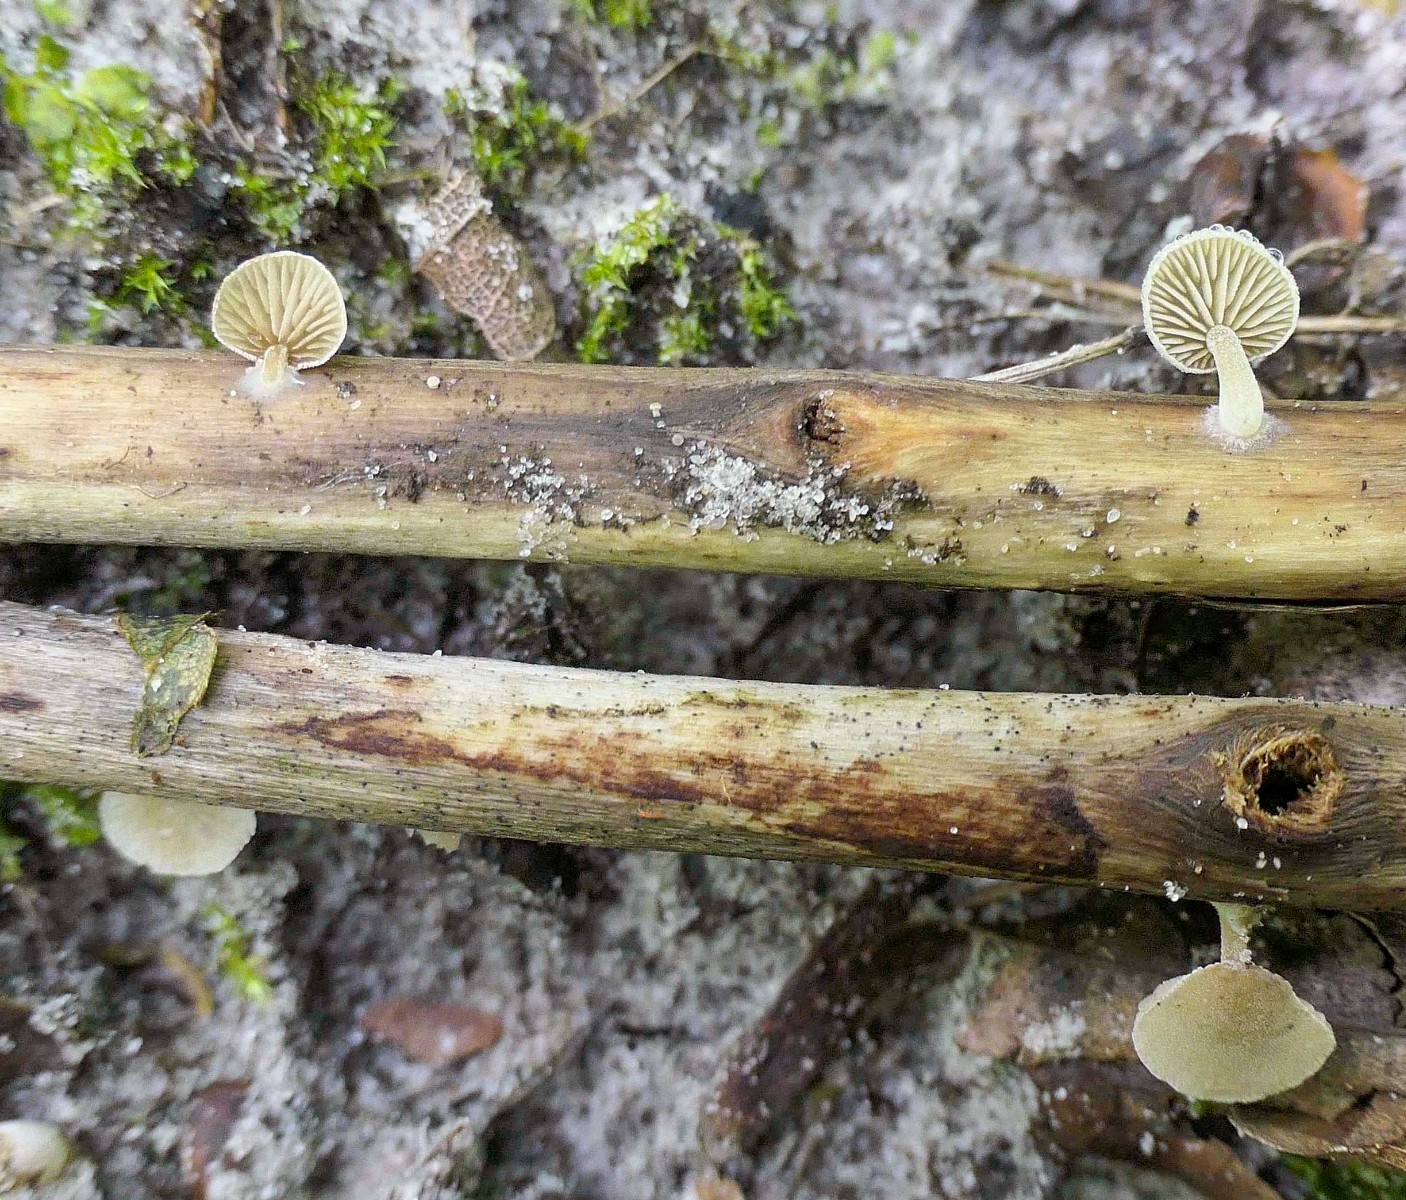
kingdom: Fungi
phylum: Basidiomycota
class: Agaricomycetes
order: Agaricales
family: Crepidotaceae
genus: Simocybe
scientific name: Simocybe haustellaris
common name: skæv skyggehat
